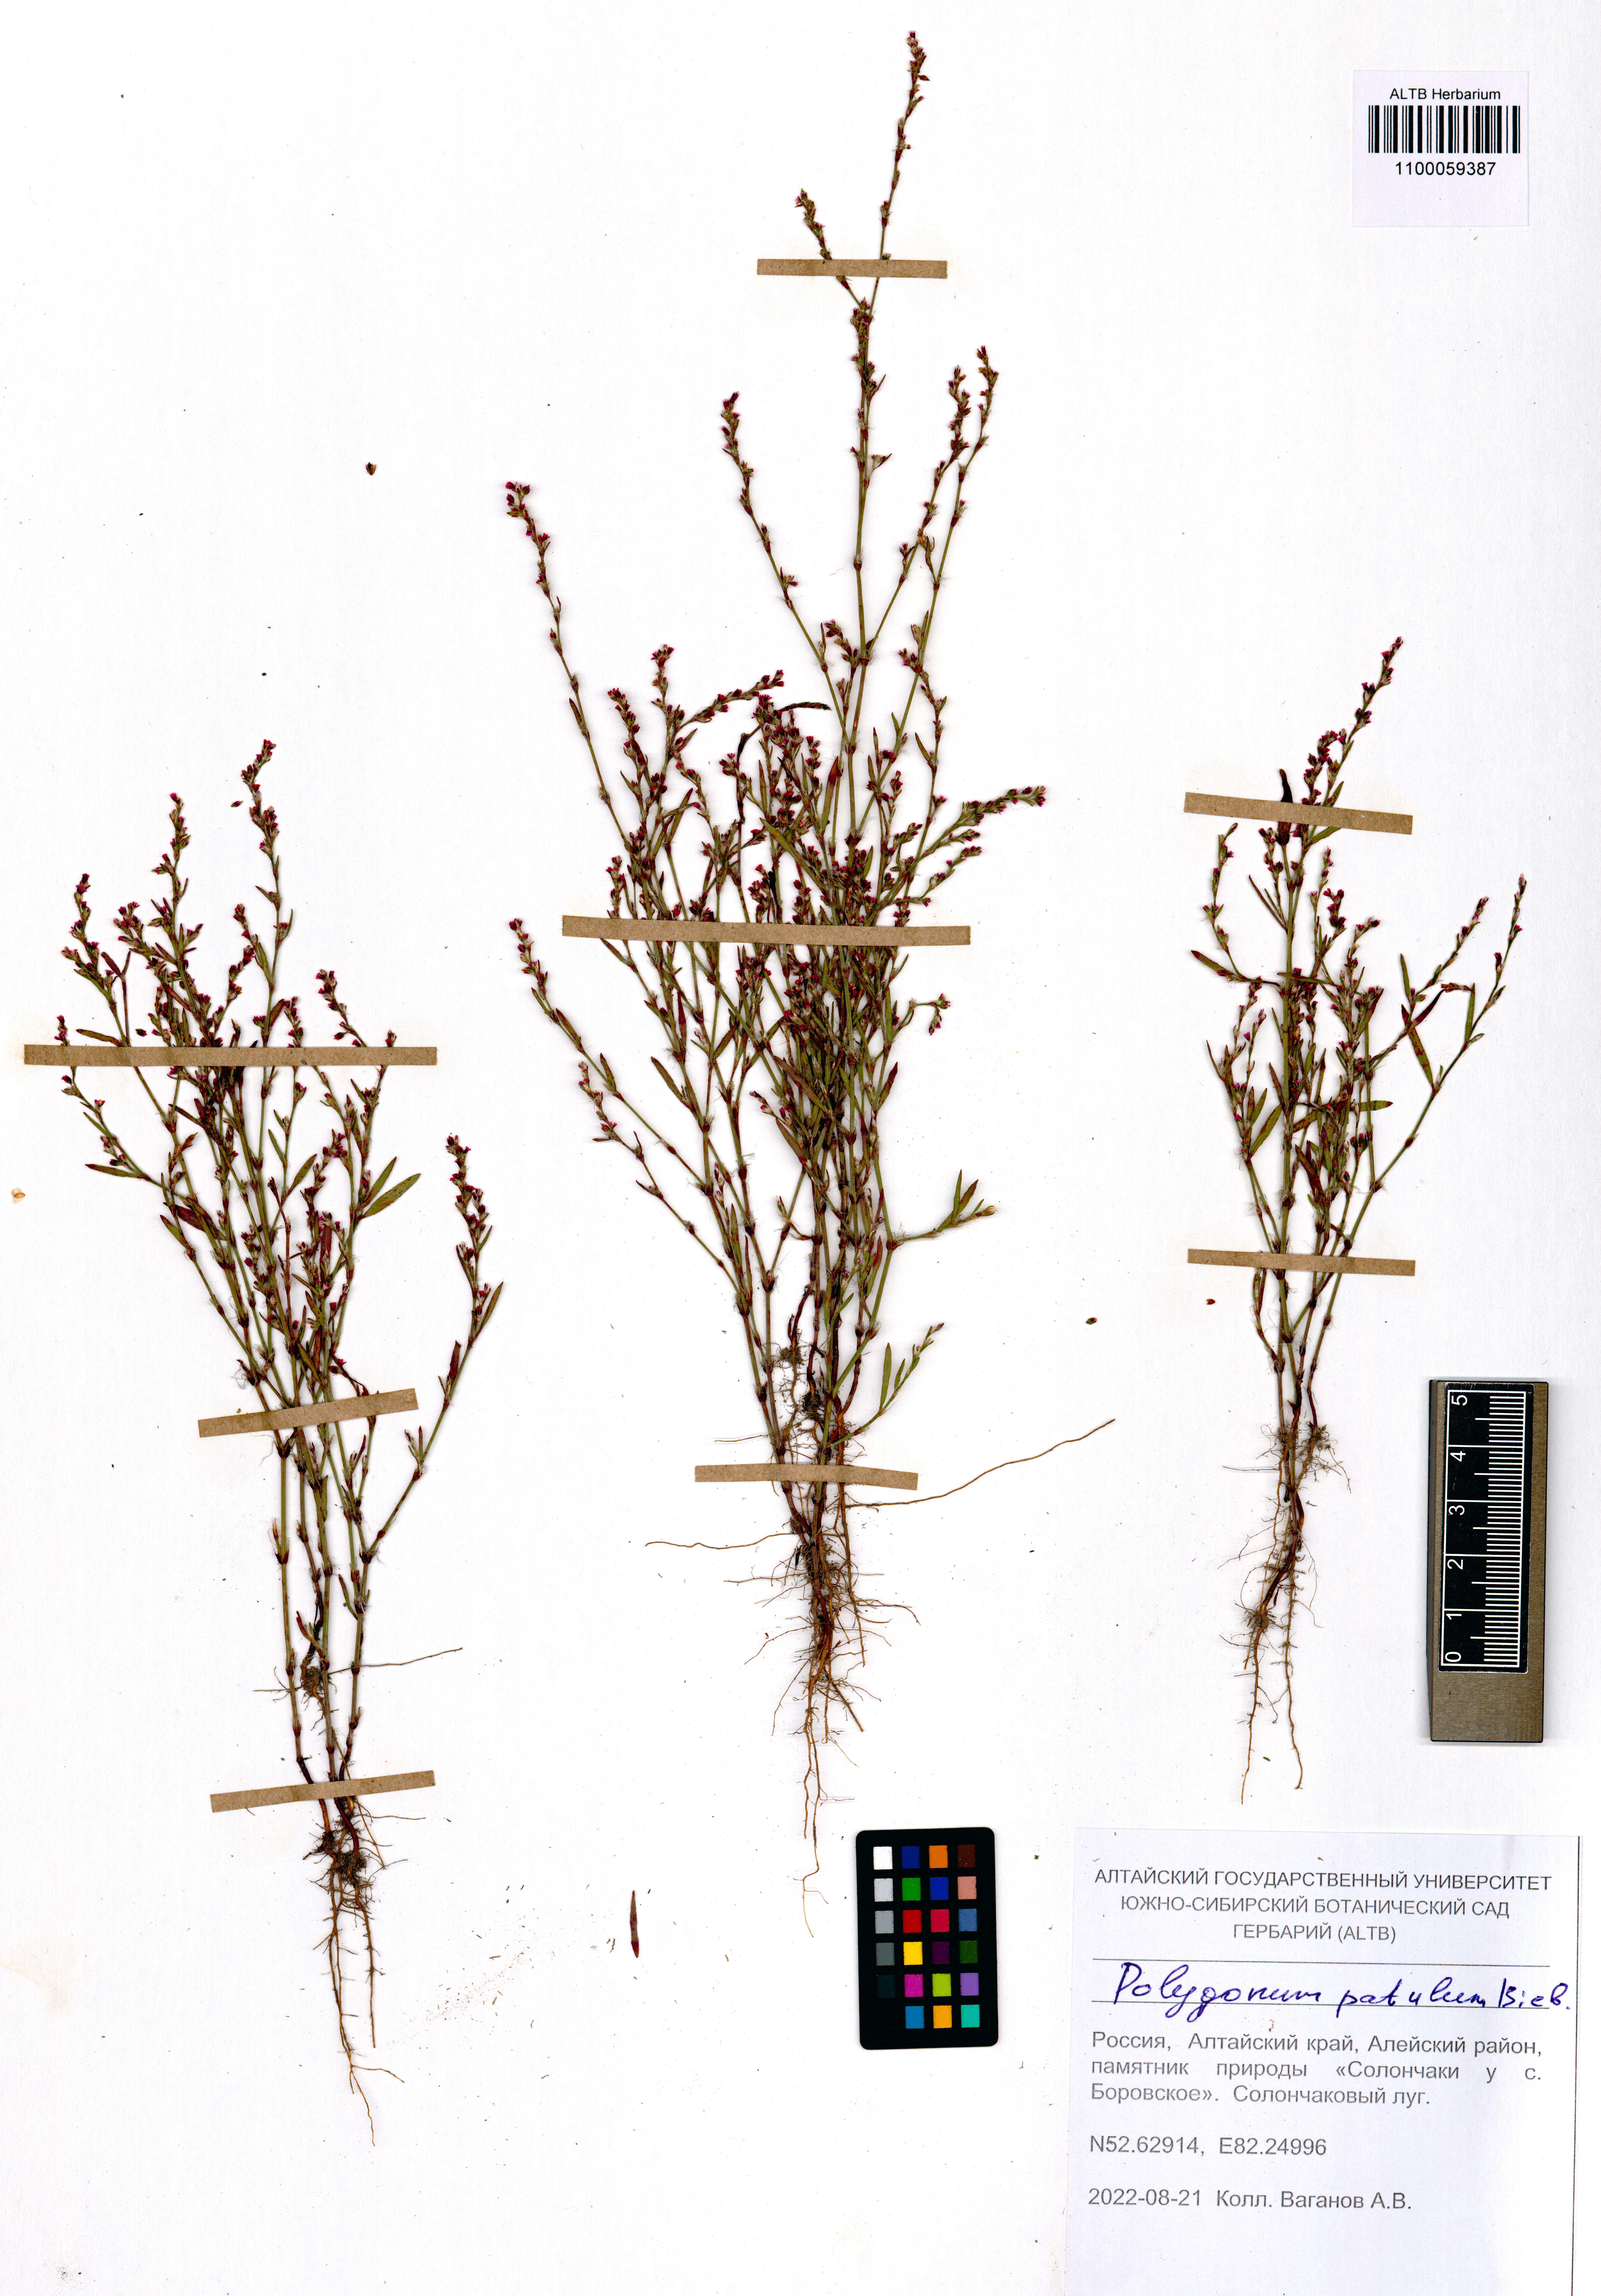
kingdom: Plantae
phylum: Tracheophyta
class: Magnoliopsida
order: Caryophyllales
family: Polygonaceae
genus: Polygonum
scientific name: Polygonum patulum
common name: Red-knotgrass
